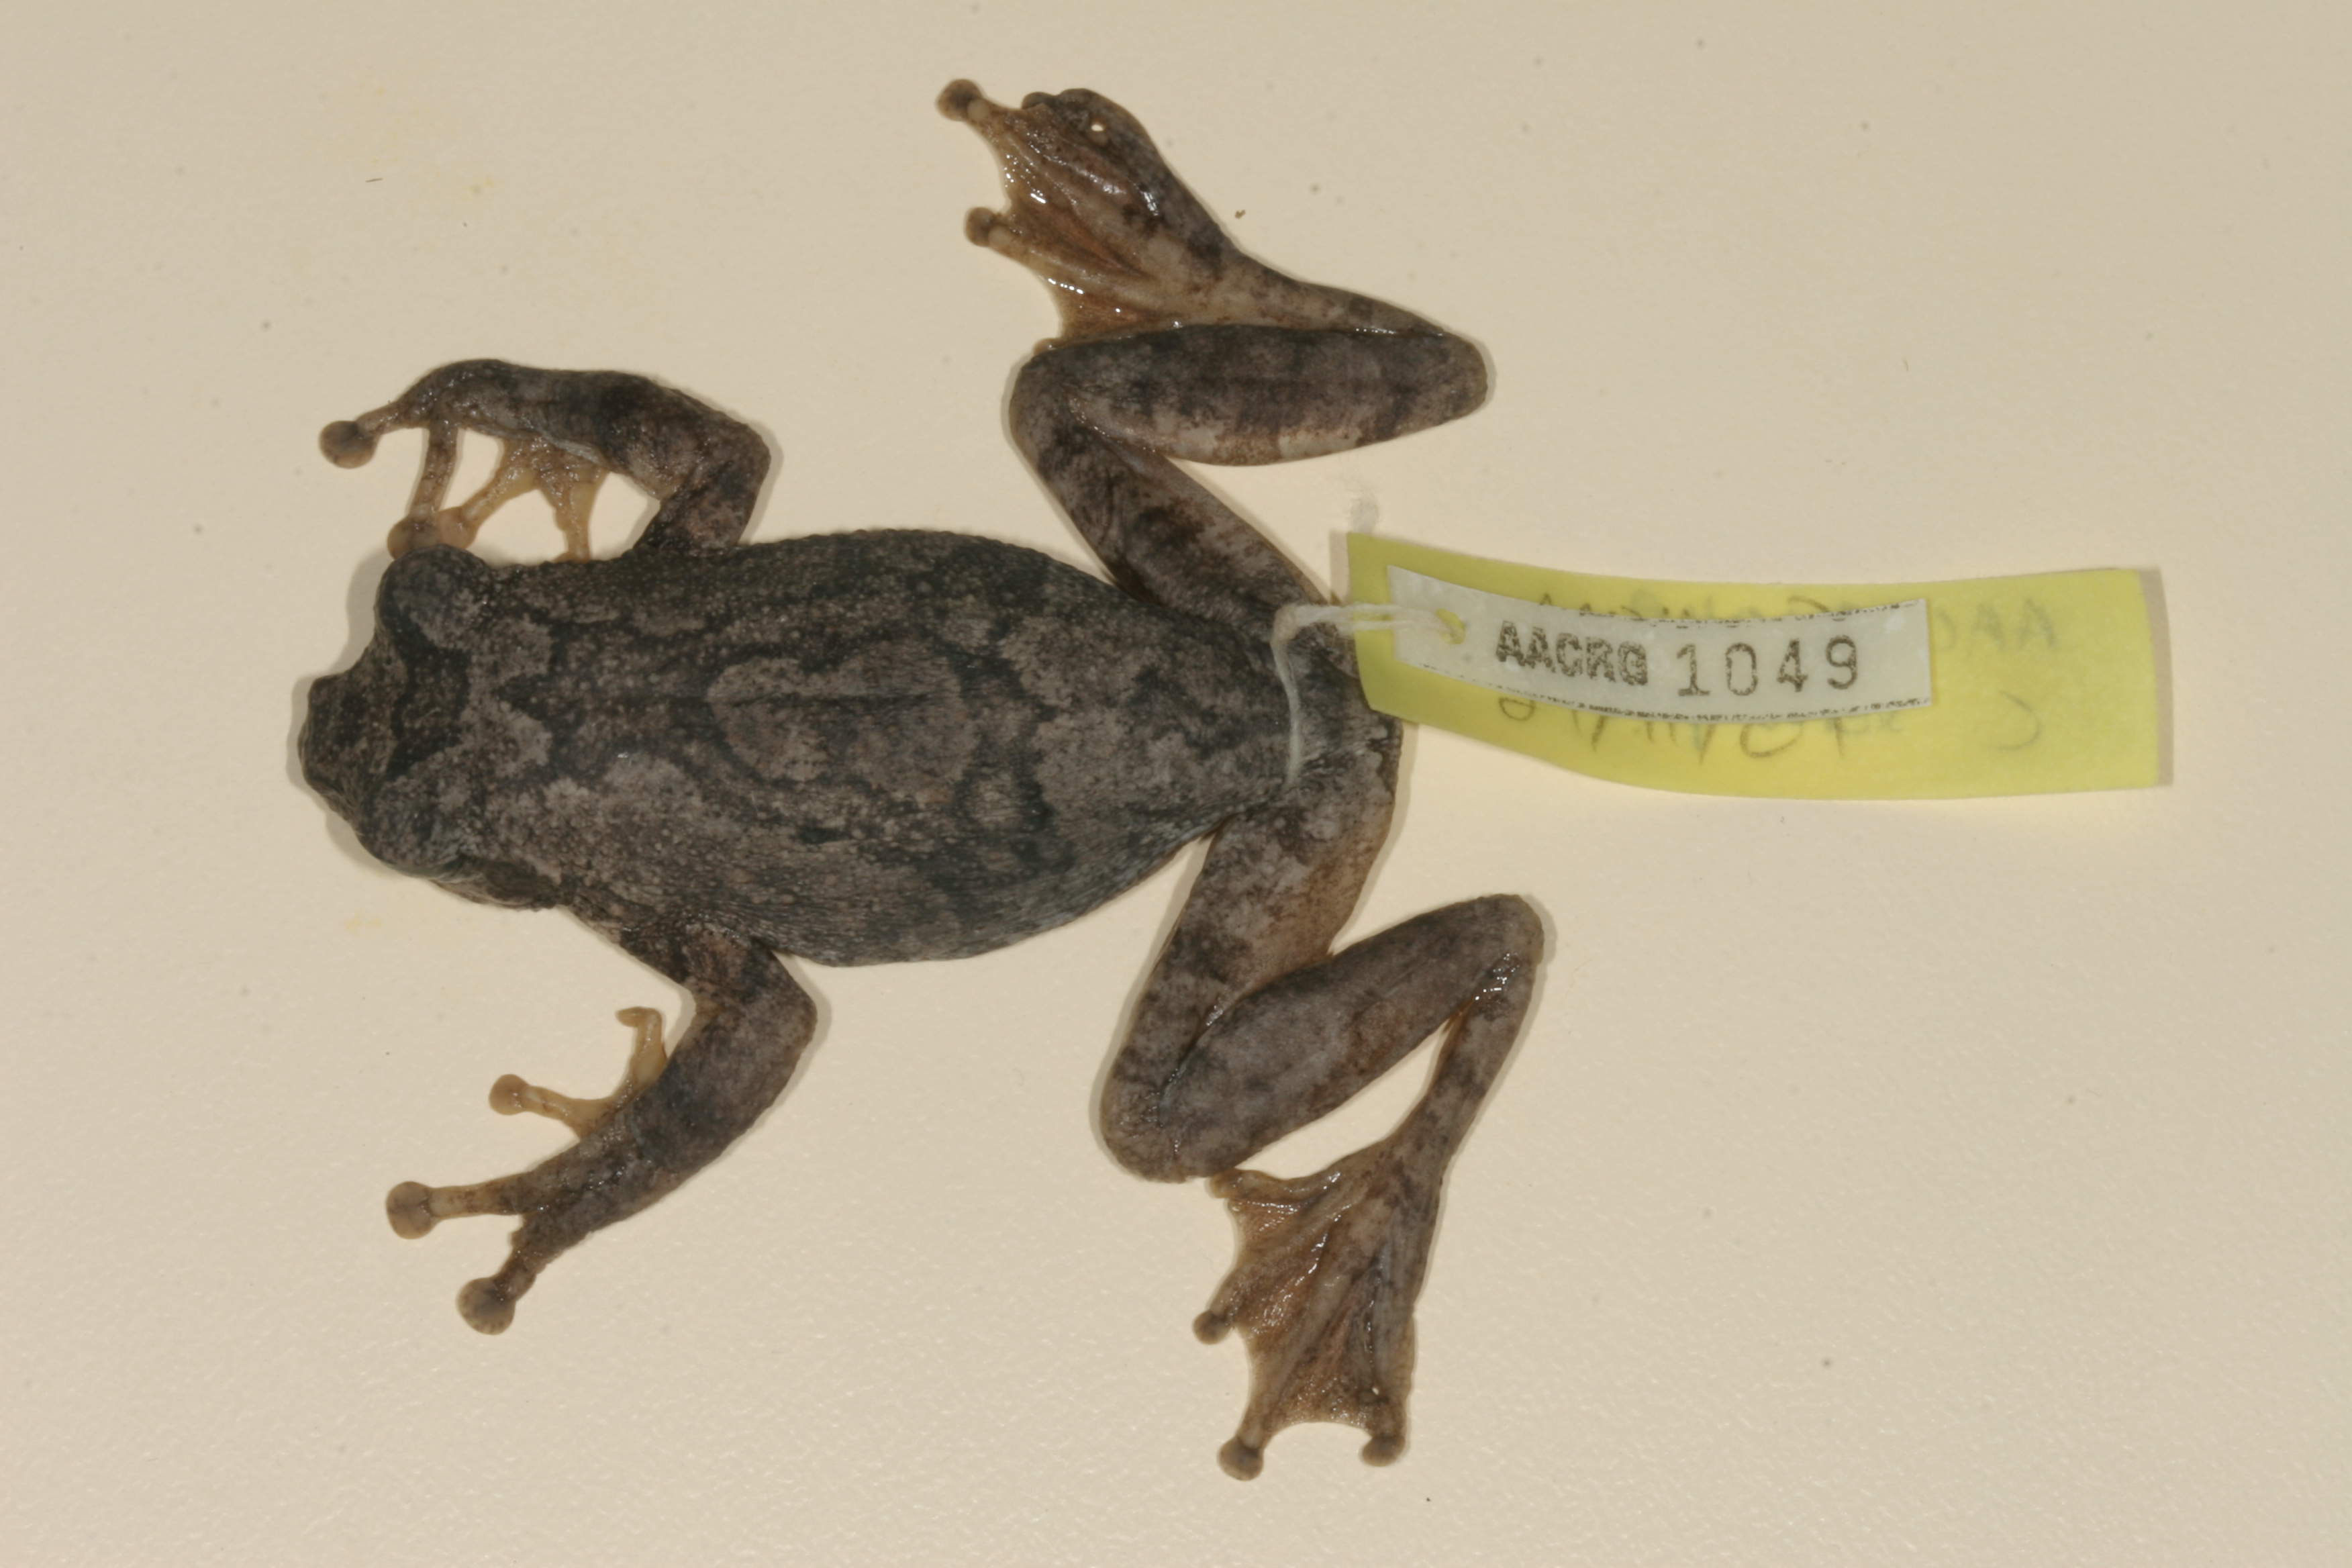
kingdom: Animalia
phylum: Chordata
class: Amphibia
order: Anura
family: Rhacophoridae
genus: Chiromantis
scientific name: Chiromantis xerampelina
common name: African gray treefrog
